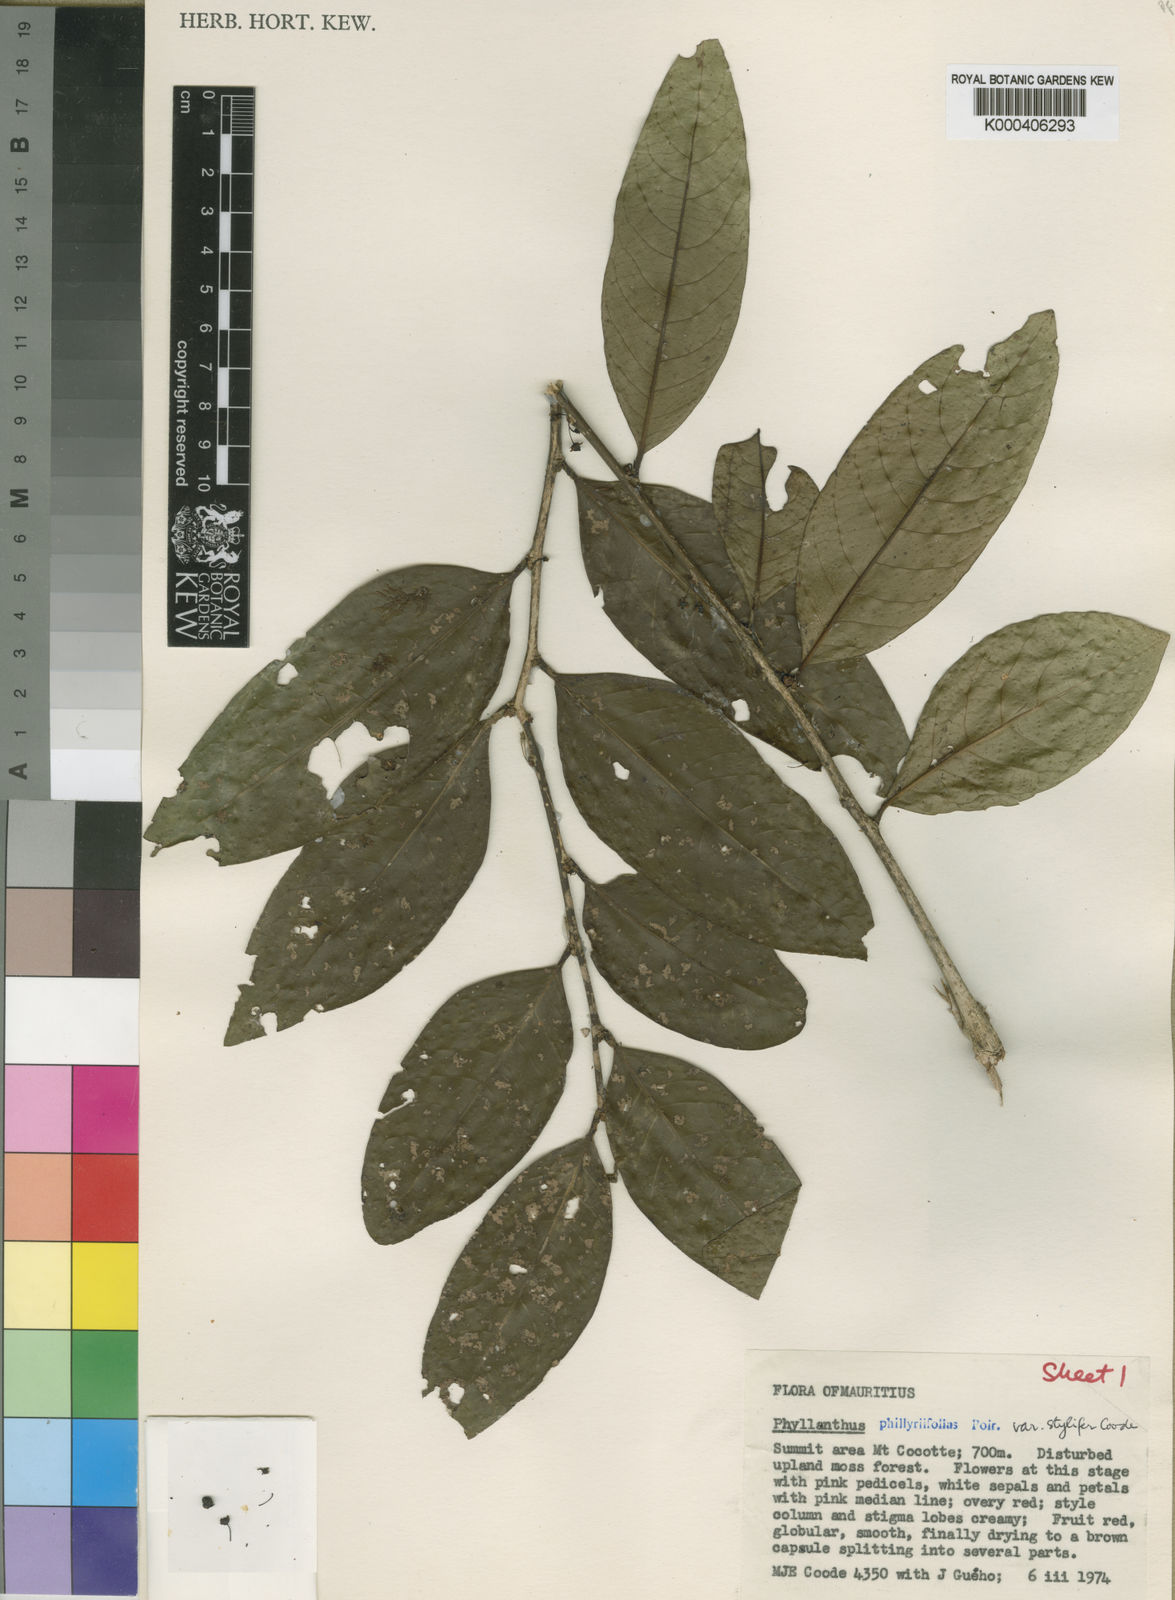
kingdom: Plantae
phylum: Tracheophyta
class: Magnoliopsida
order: Malpighiales
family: Phyllanthaceae
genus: Phyllanthus
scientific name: Phyllanthus phillyreifolius
